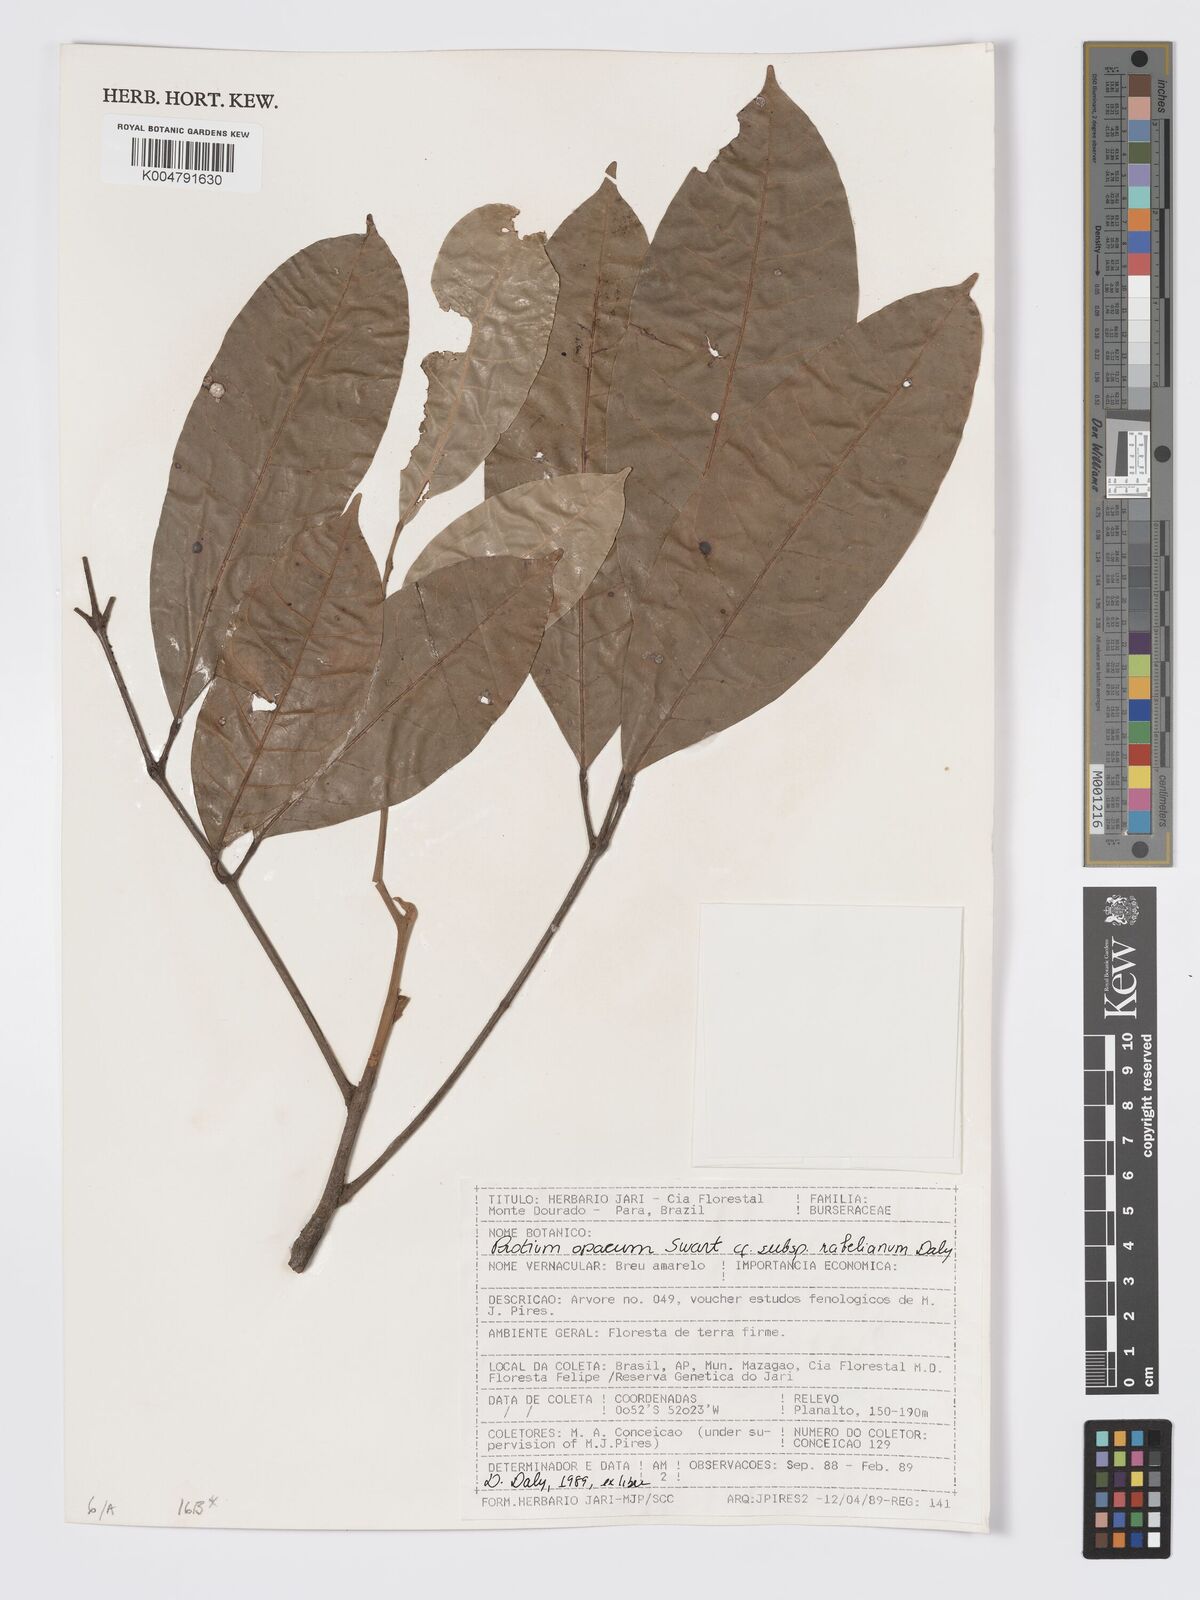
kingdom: Plantae
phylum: Tracheophyta
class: Magnoliopsida
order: Sapindales
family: Burseraceae
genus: Protium
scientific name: Protium opacum
